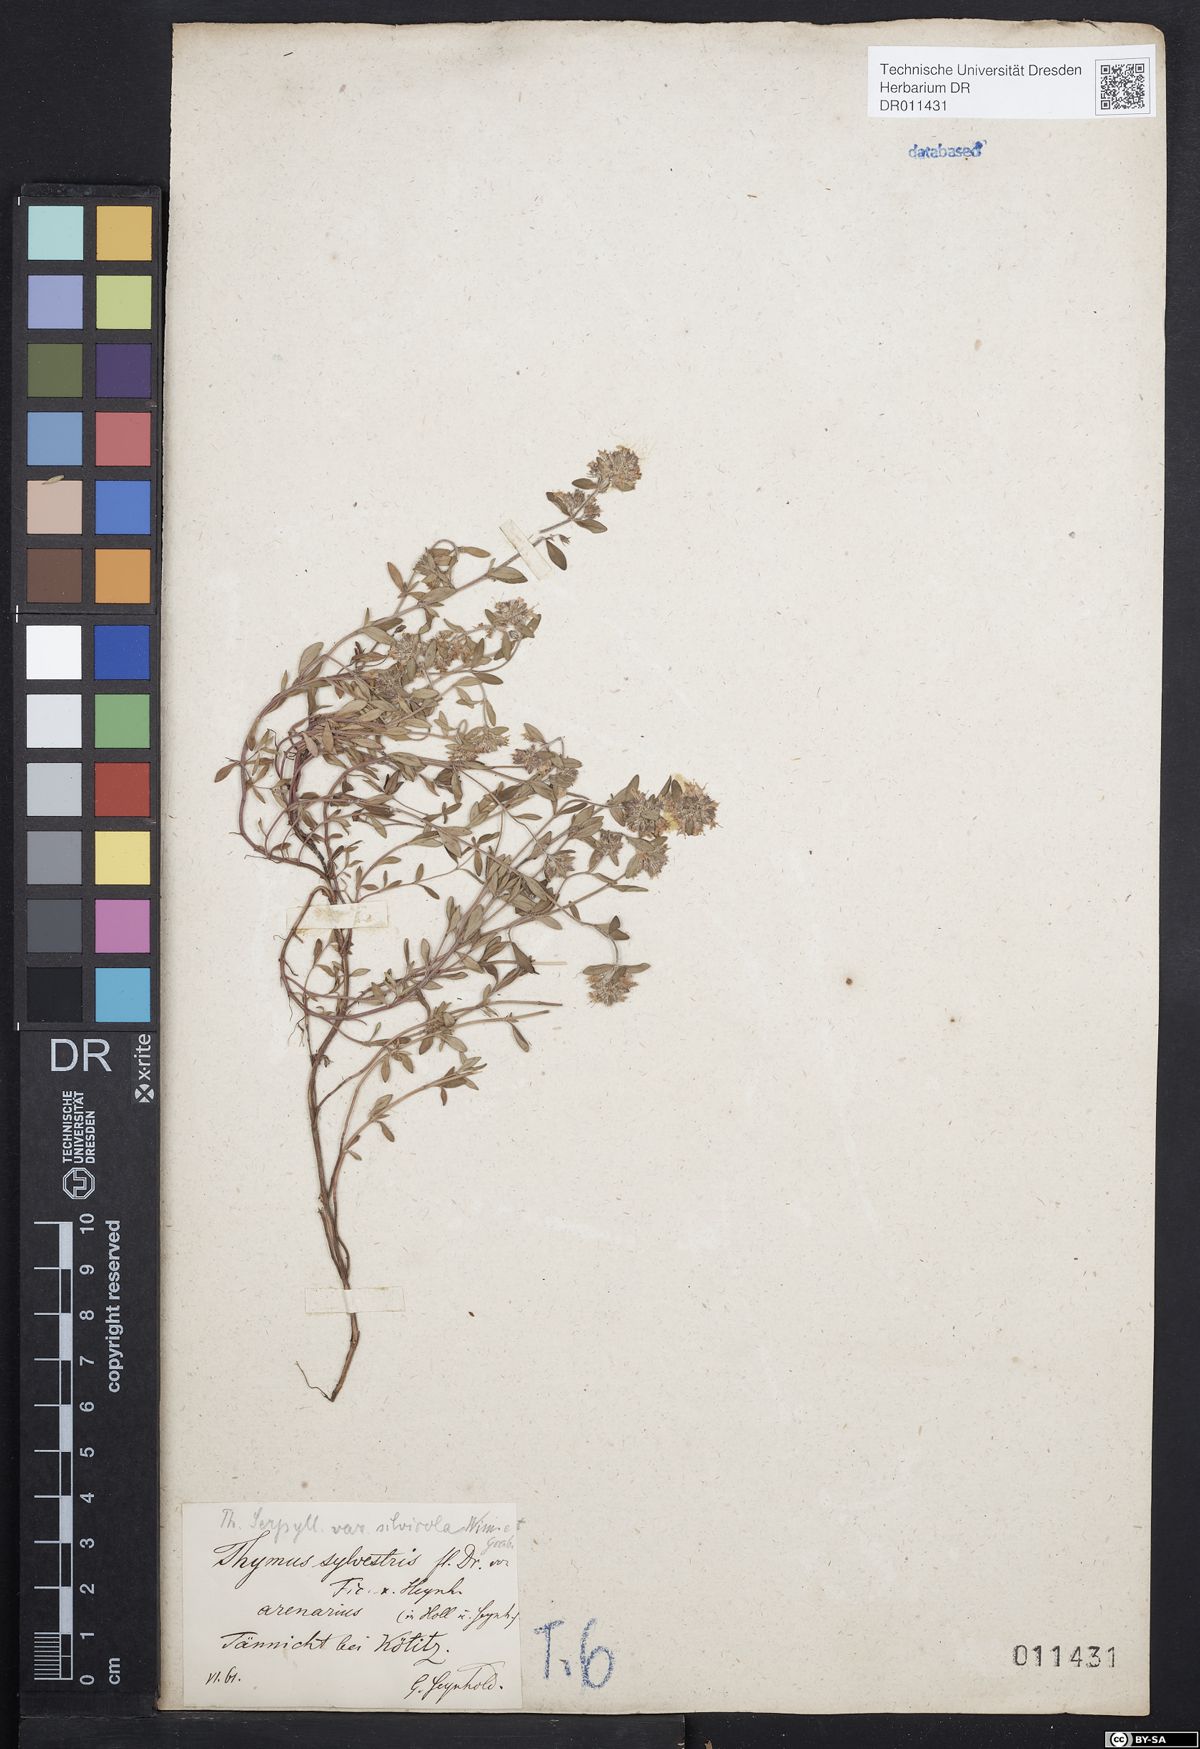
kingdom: Plantae
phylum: Tracheophyta
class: Magnoliopsida
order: Lamiales
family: Lamiaceae
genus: Thymus
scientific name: Thymus serpyllum
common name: Breckland thyme
